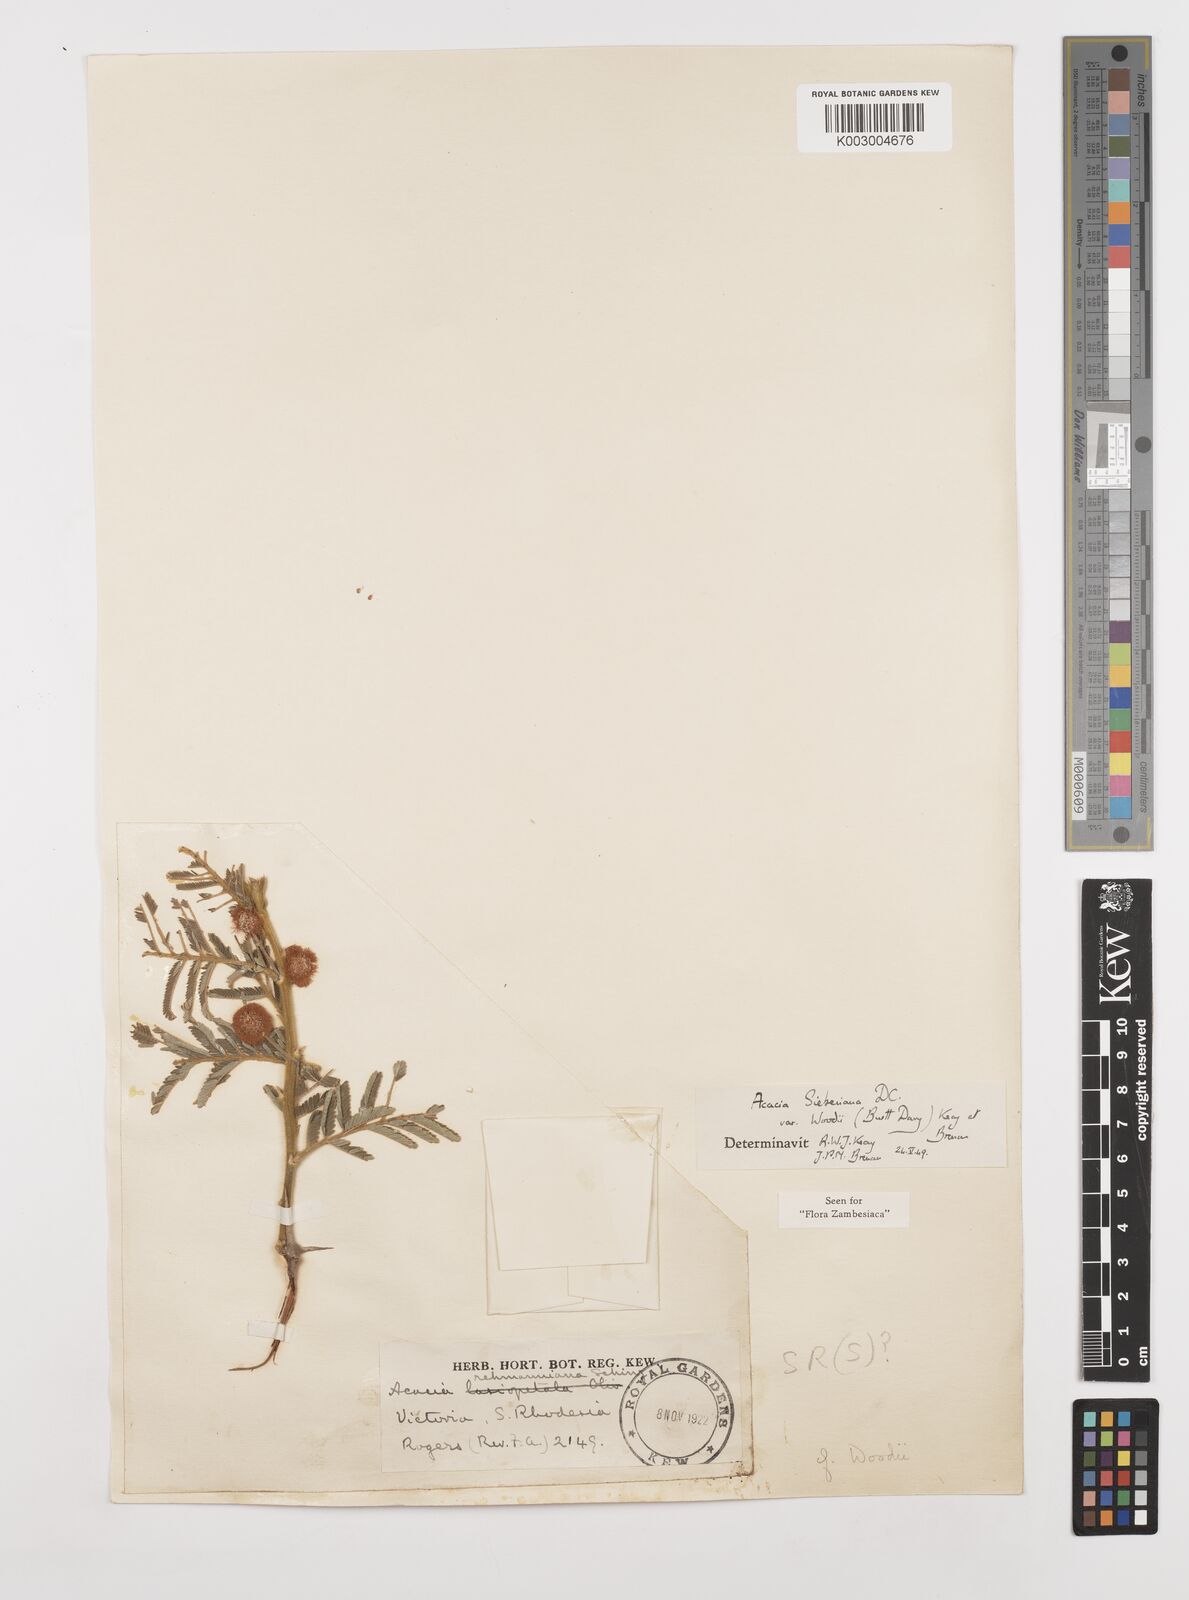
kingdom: Plantae
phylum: Tracheophyta
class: Magnoliopsida
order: Fabales
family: Fabaceae
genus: Vachellia
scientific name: Vachellia sieberiana
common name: Flat-topped thorn
